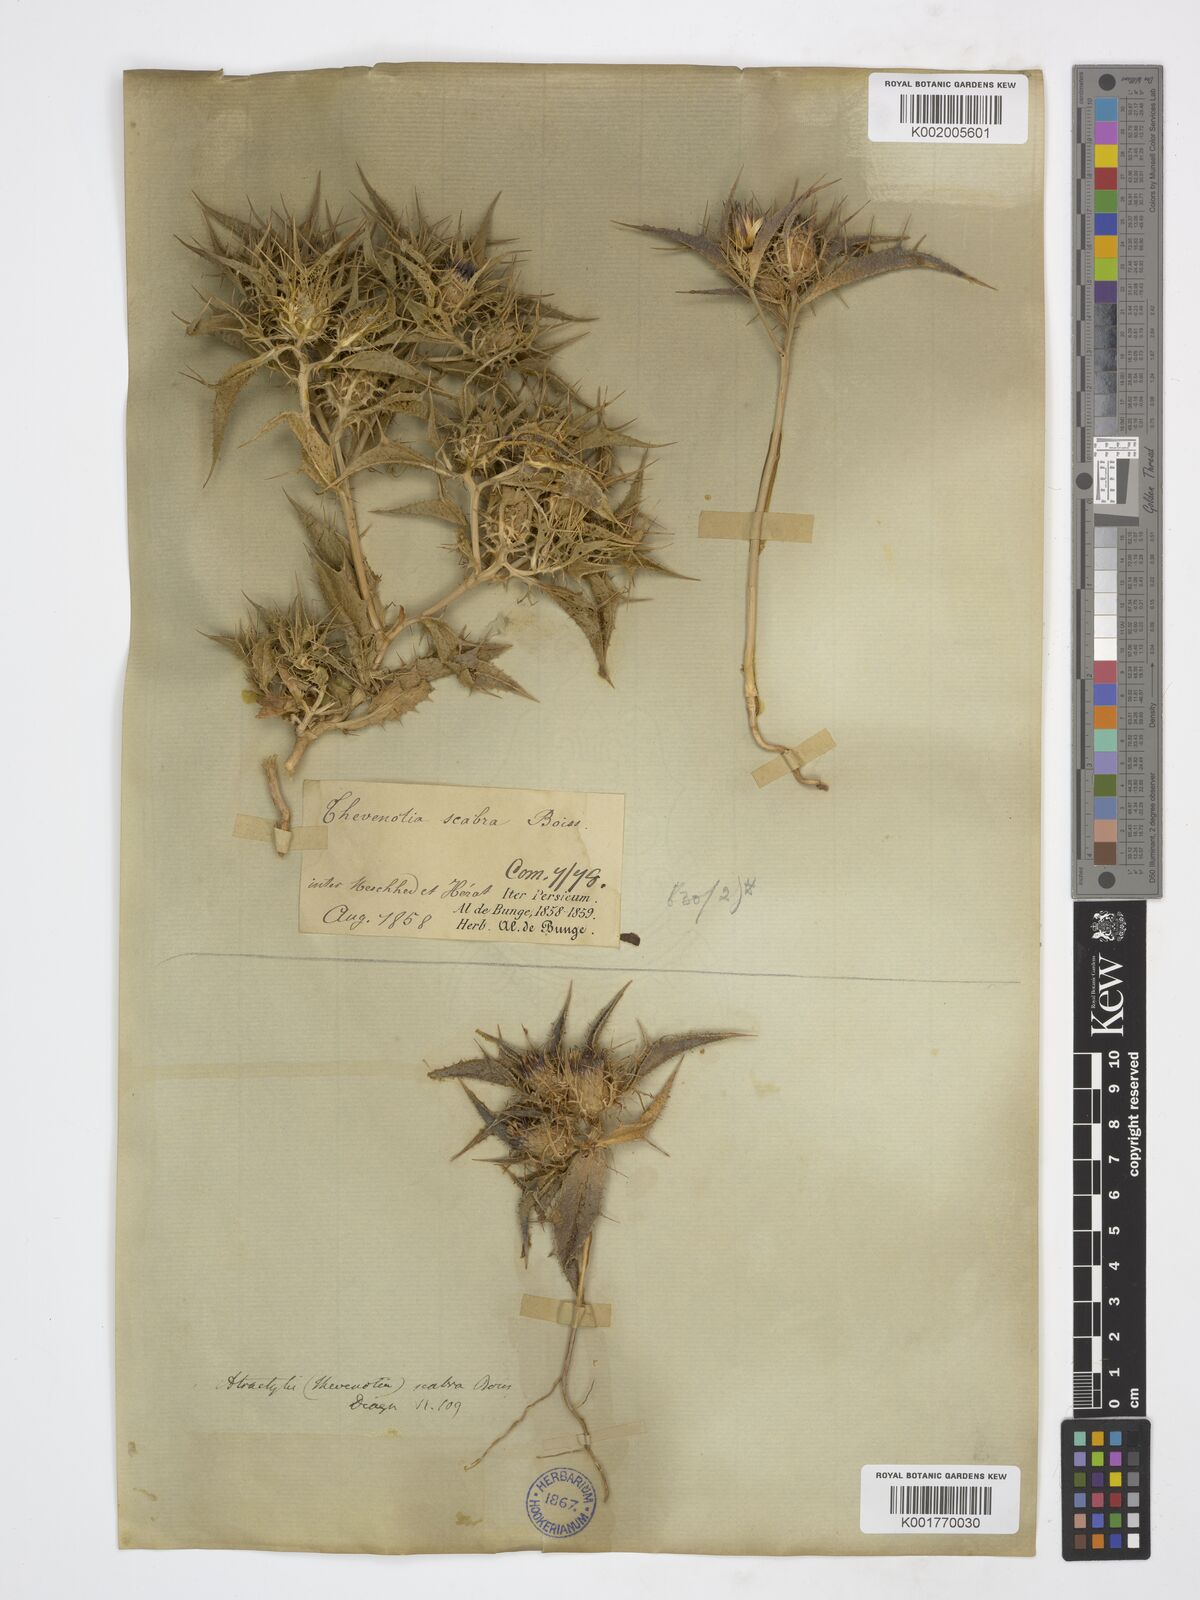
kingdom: Plantae
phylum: Tracheophyta
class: Magnoliopsida
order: Asterales
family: Asteraceae
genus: Thevenotia
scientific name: Thevenotia scabra
